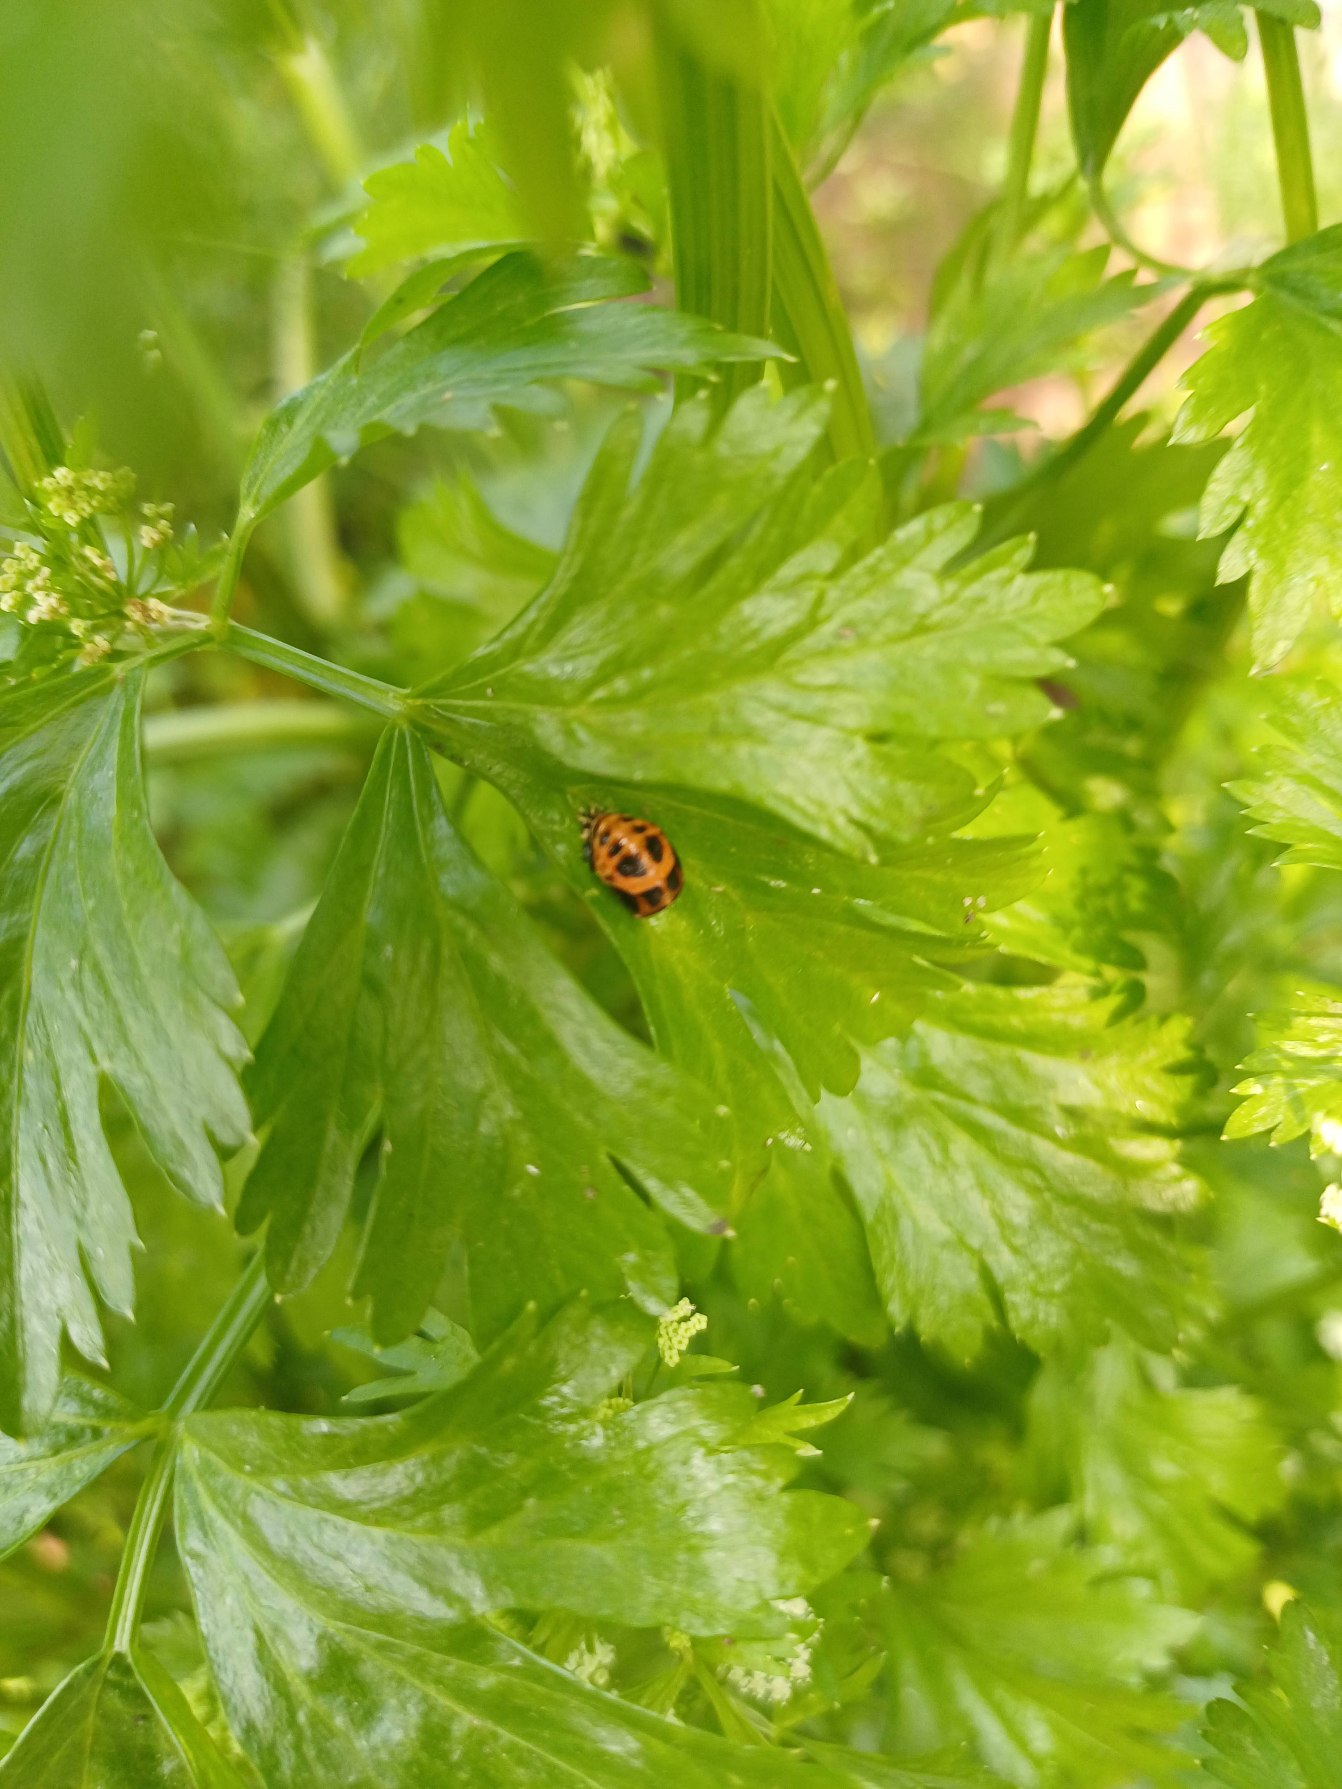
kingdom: Animalia
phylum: Arthropoda
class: Insecta
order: Coleoptera
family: Coccinellidae
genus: Harmonia
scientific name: Harmonia axyridis
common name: Harlekinmariehøne
